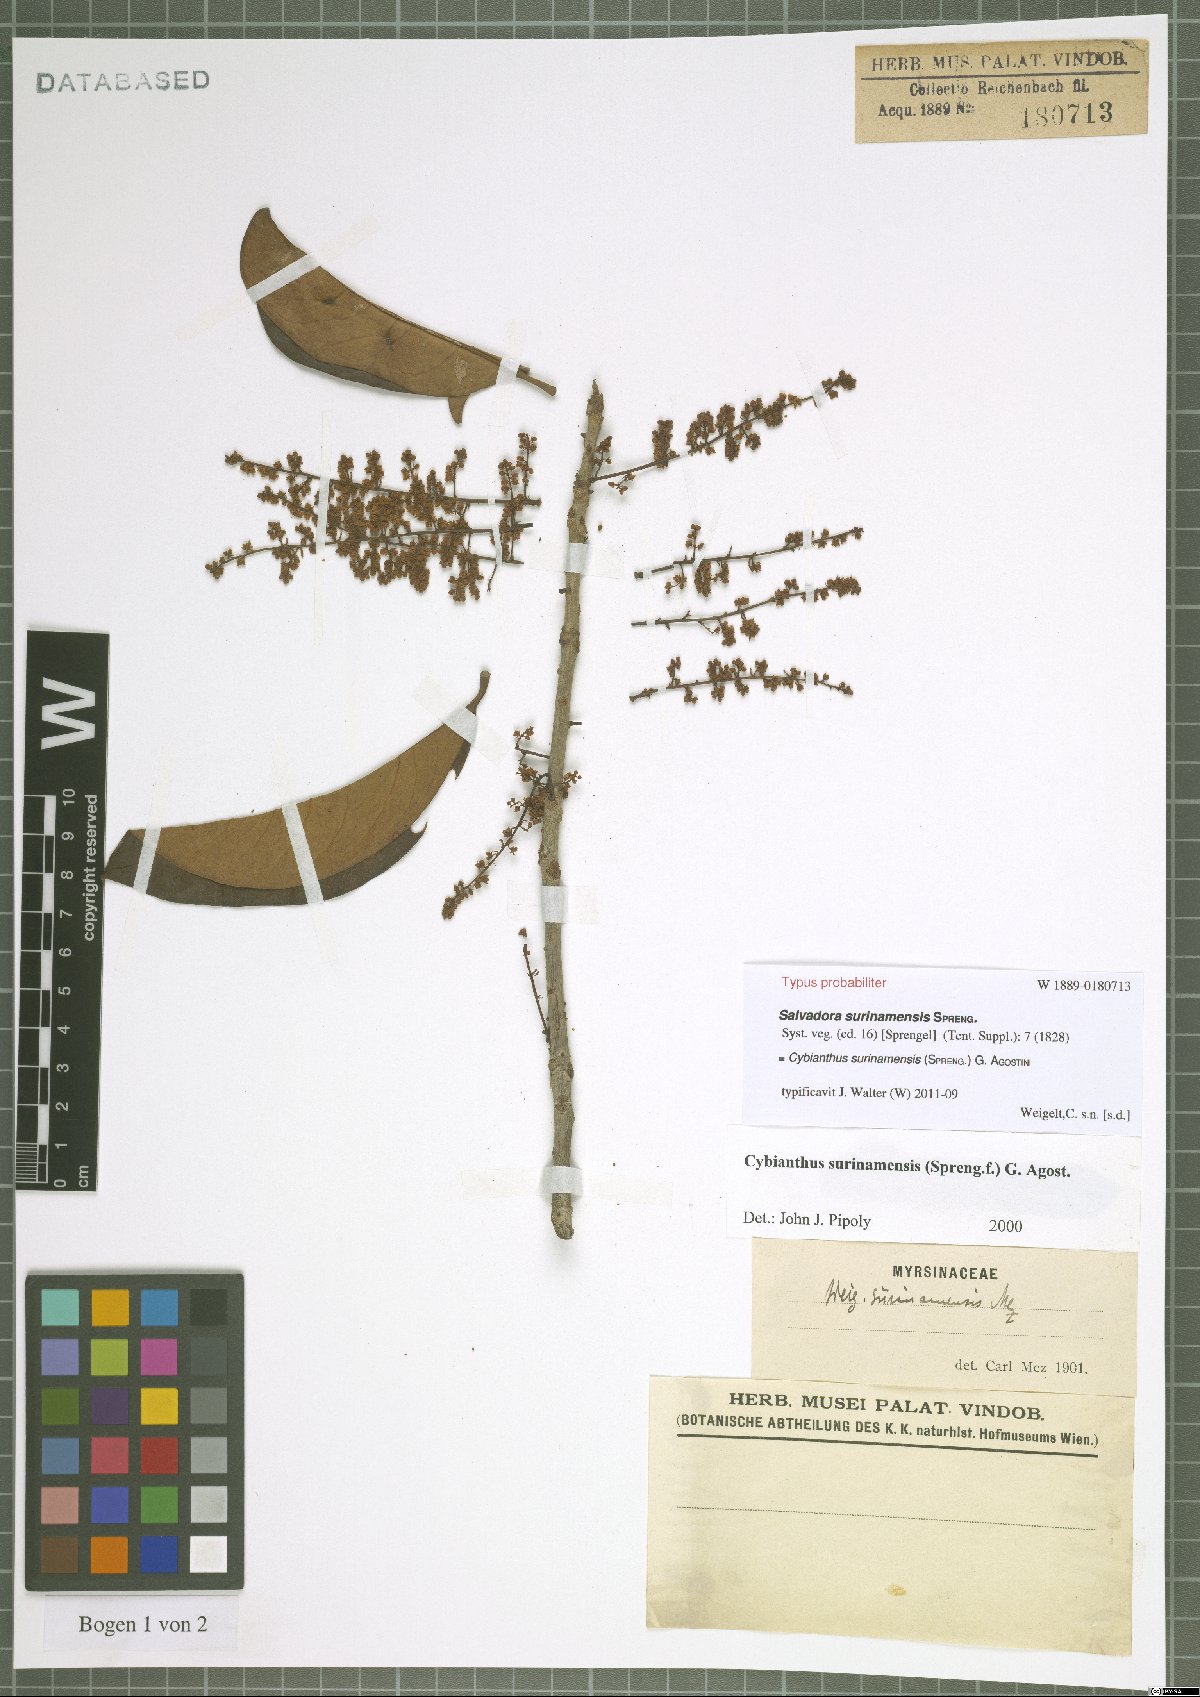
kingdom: Plantae
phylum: Tracheophyta
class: Magnoliopsida
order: Ericales
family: Primulaceae
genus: Cybianthus
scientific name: Cybianthus surinamensis
